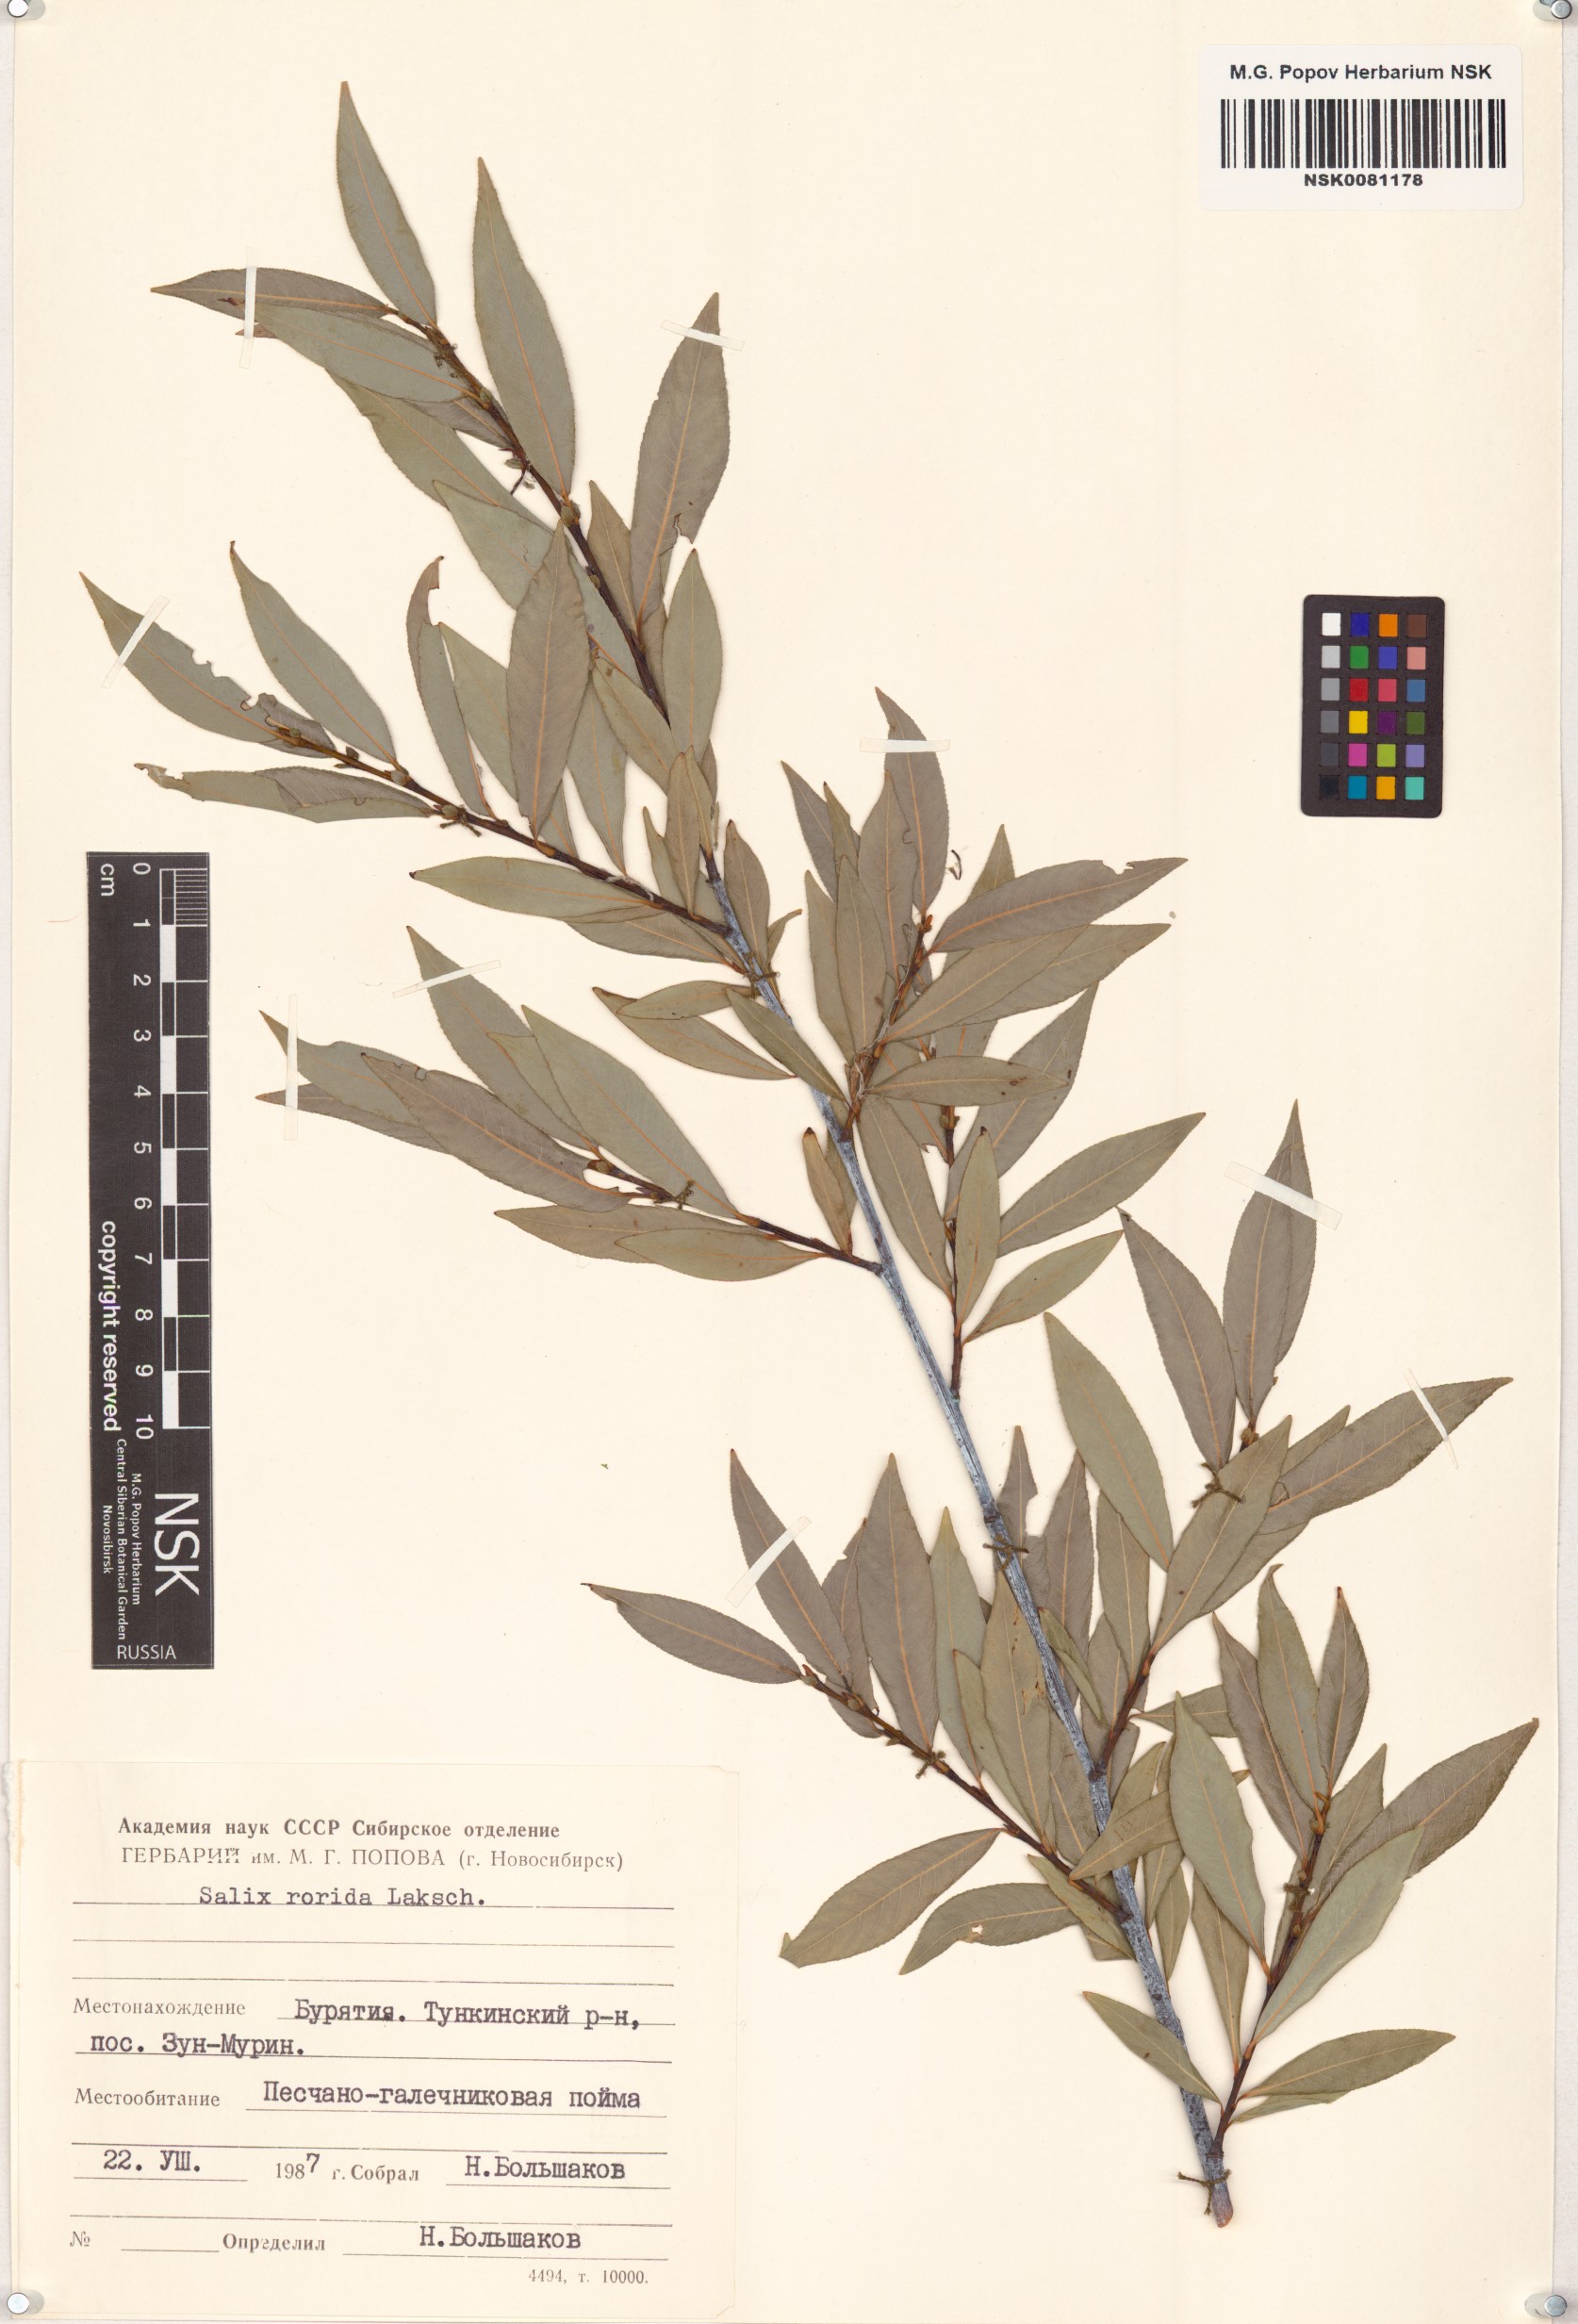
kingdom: Plantae
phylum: Tracheophyta
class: Magnoliopsida
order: Malpighiales
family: Salicaceae
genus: Salix
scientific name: Salix rorida
